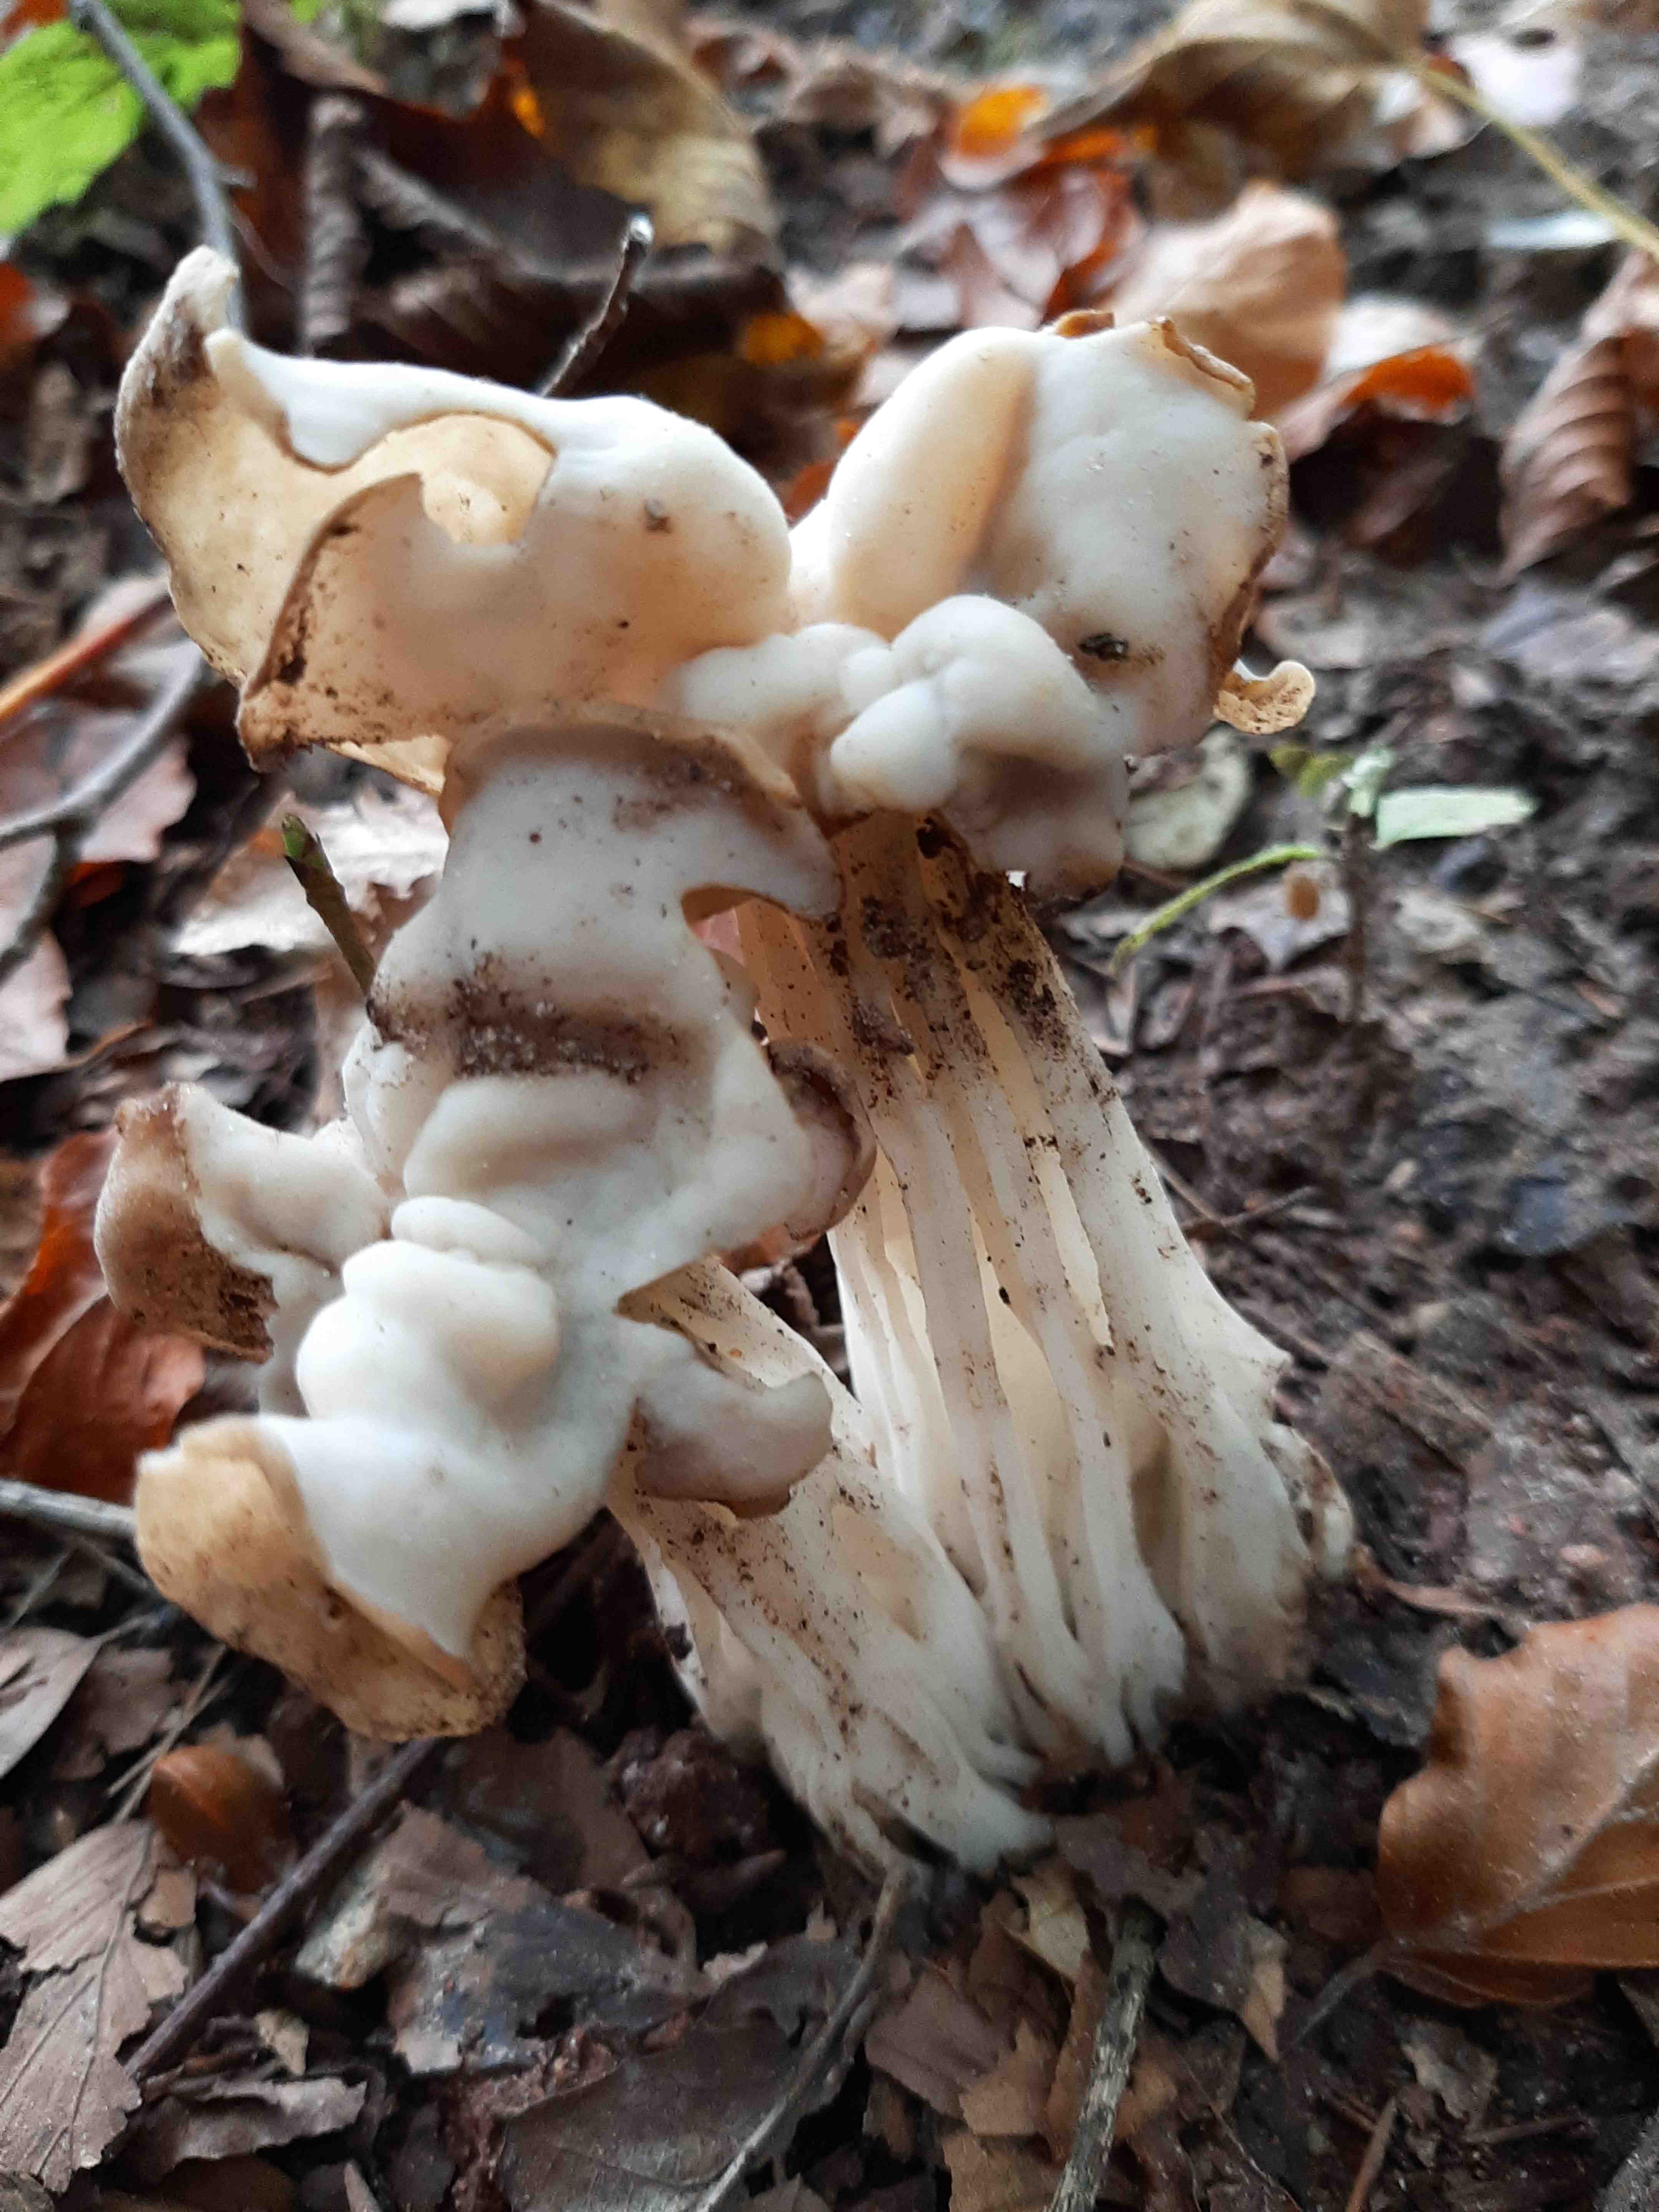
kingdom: Fungi
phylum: Ascomycota
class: Pezizomycetes
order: Pezizales
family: Helvellaceae
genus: Helvella
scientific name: Helvella crispa
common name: kruset foldhat
